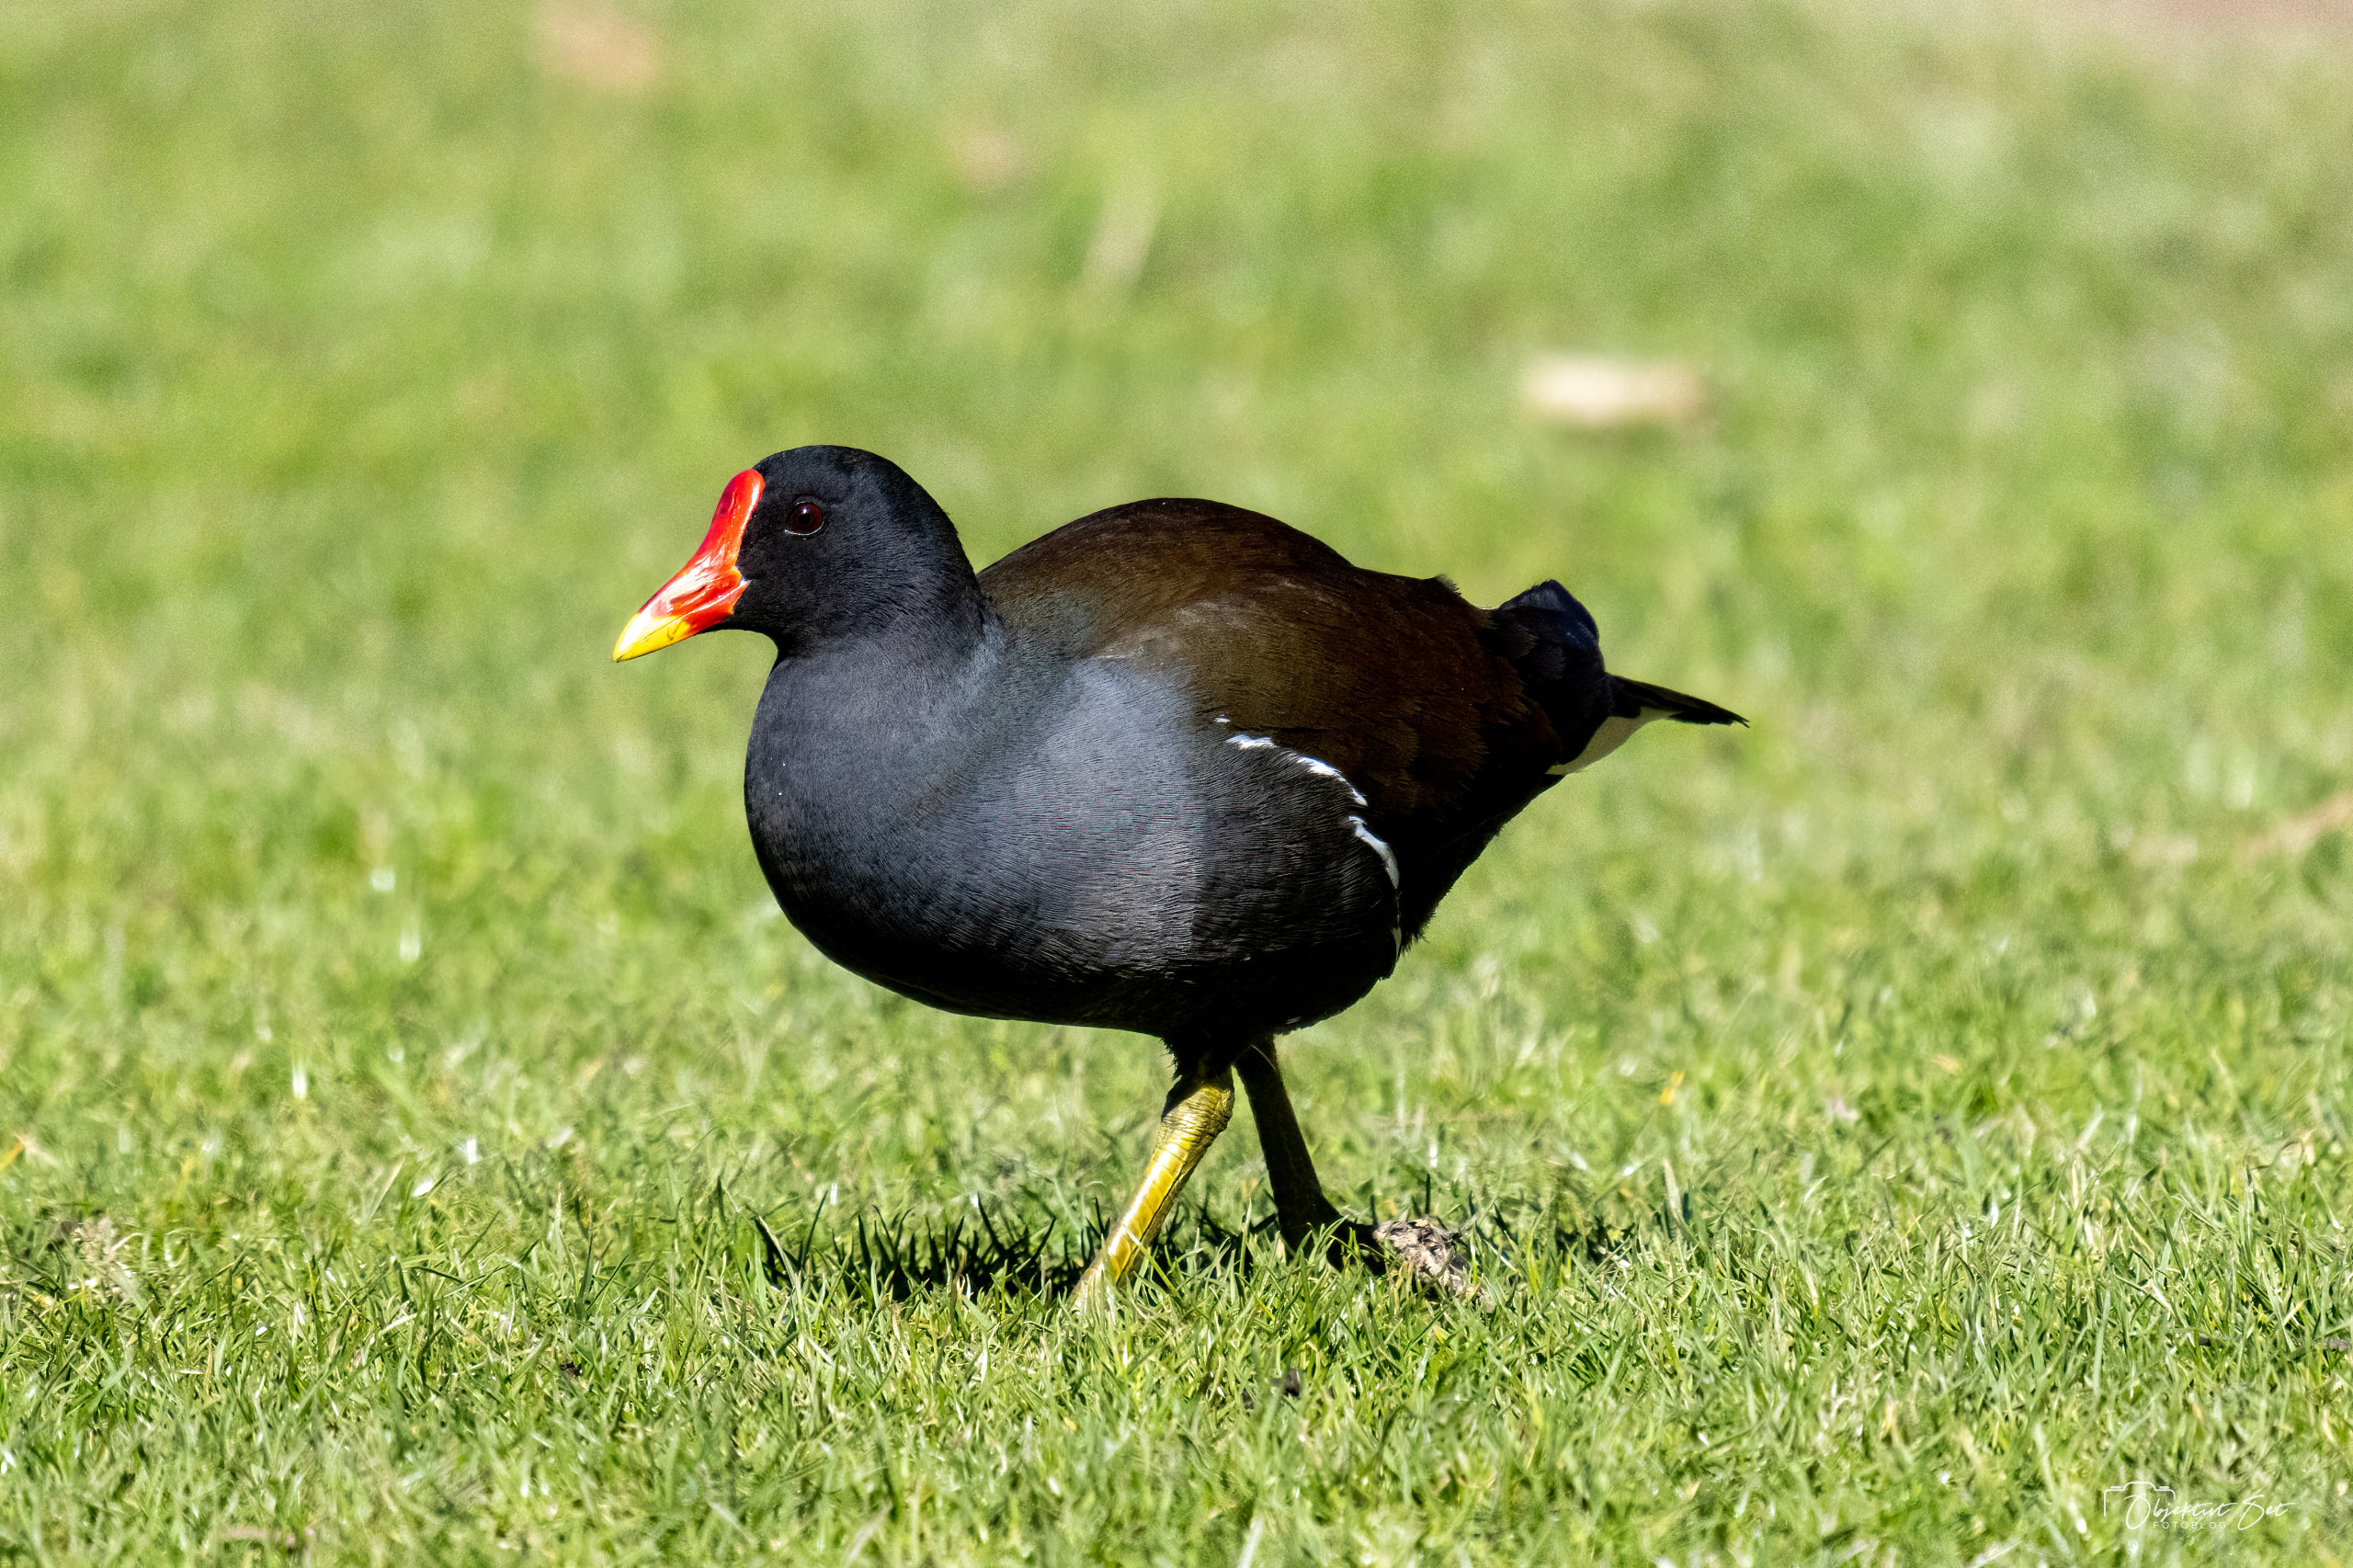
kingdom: Animalia
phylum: Chordata
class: Aves
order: Gruiformes
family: Rallidae
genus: Gallinula
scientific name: Gallinula chloropus
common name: Grønbenet rørhøne
